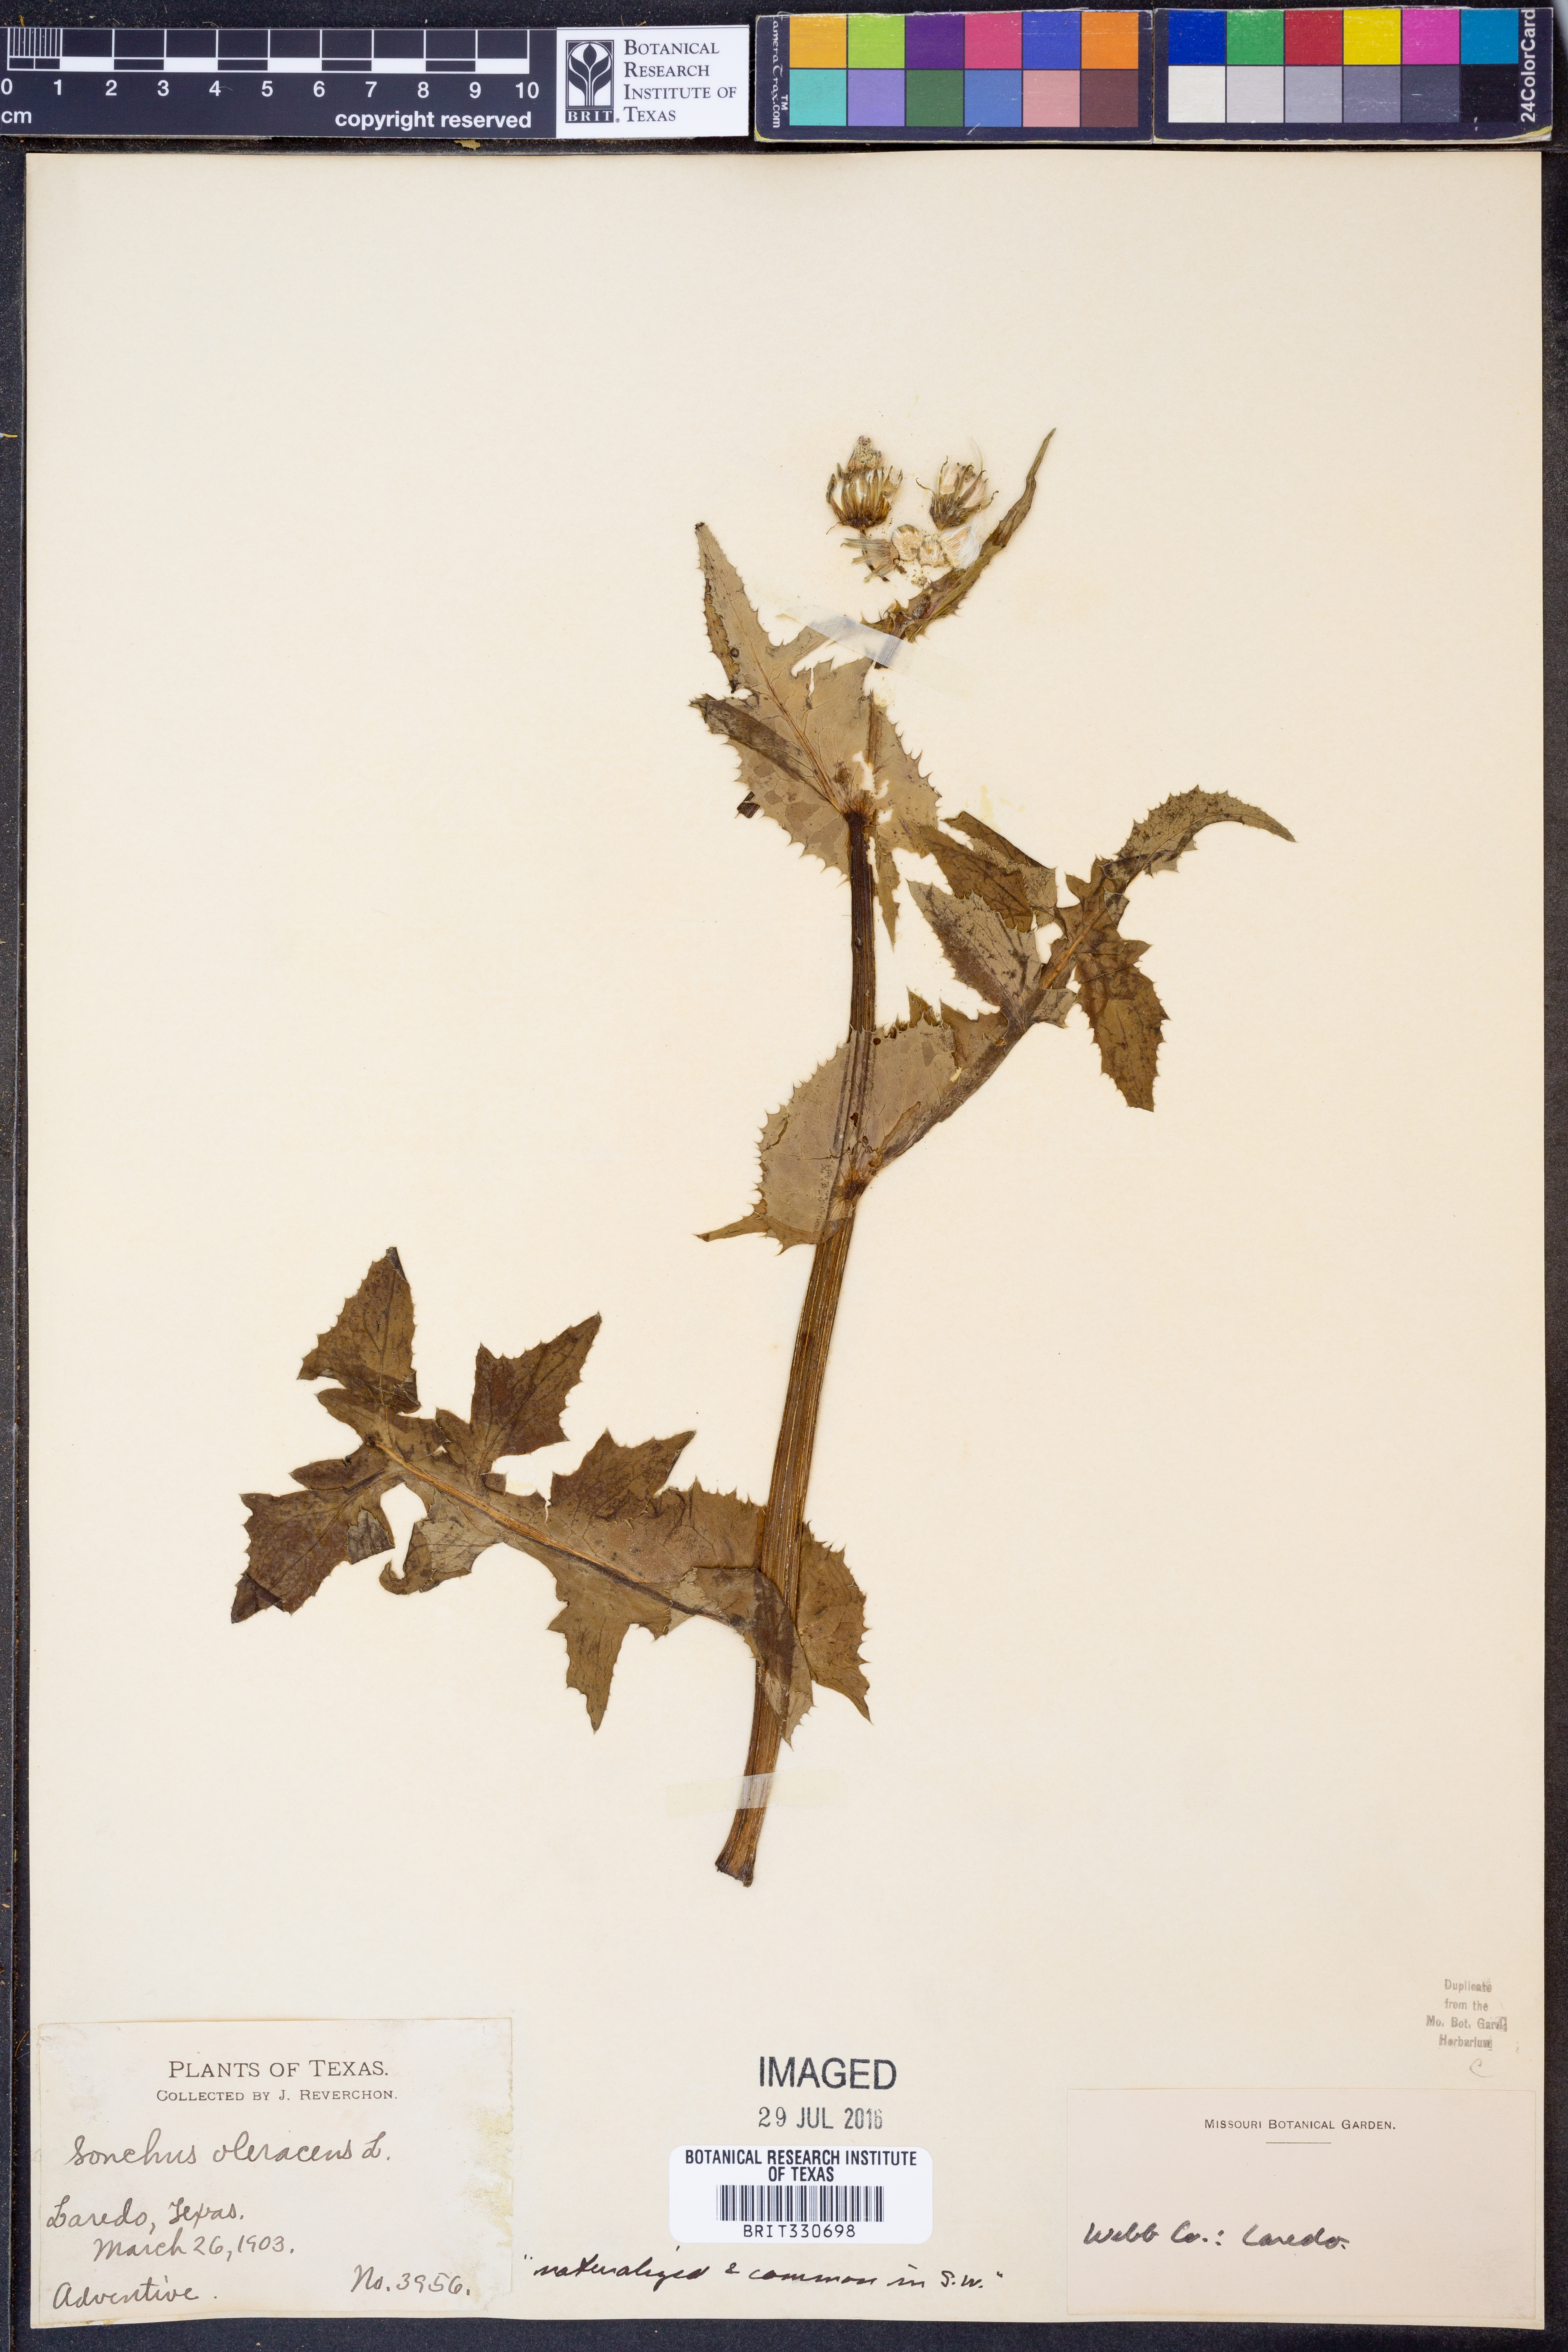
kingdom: Plantae
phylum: Tracheophyta
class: Magnoliopsida
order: Asterales
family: Asteraceae
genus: Sonchus
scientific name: Sonchus oleraceus
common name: Common sowthistle
